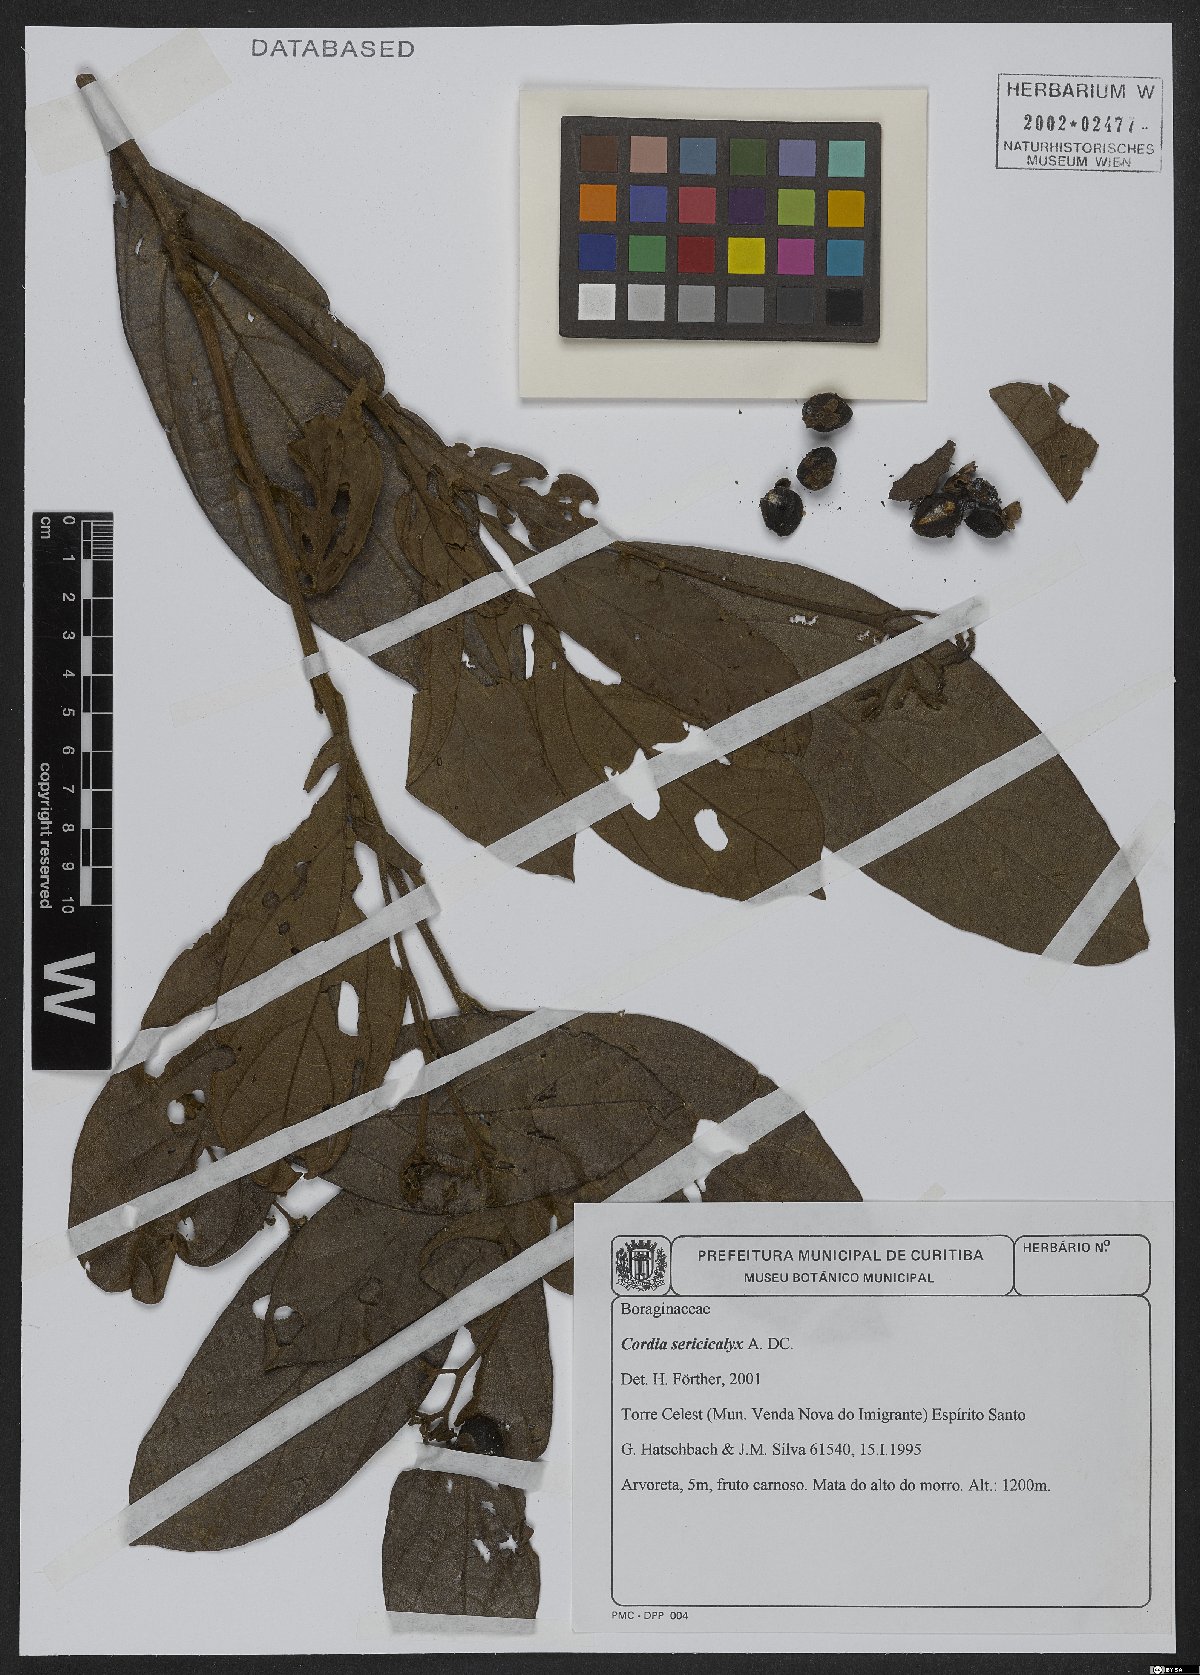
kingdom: Plantae
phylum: Tracheophyta
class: Magnoliopsida
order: Boraginales
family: Cordiaceae
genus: Cordia
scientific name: Cordia sericicalyx
